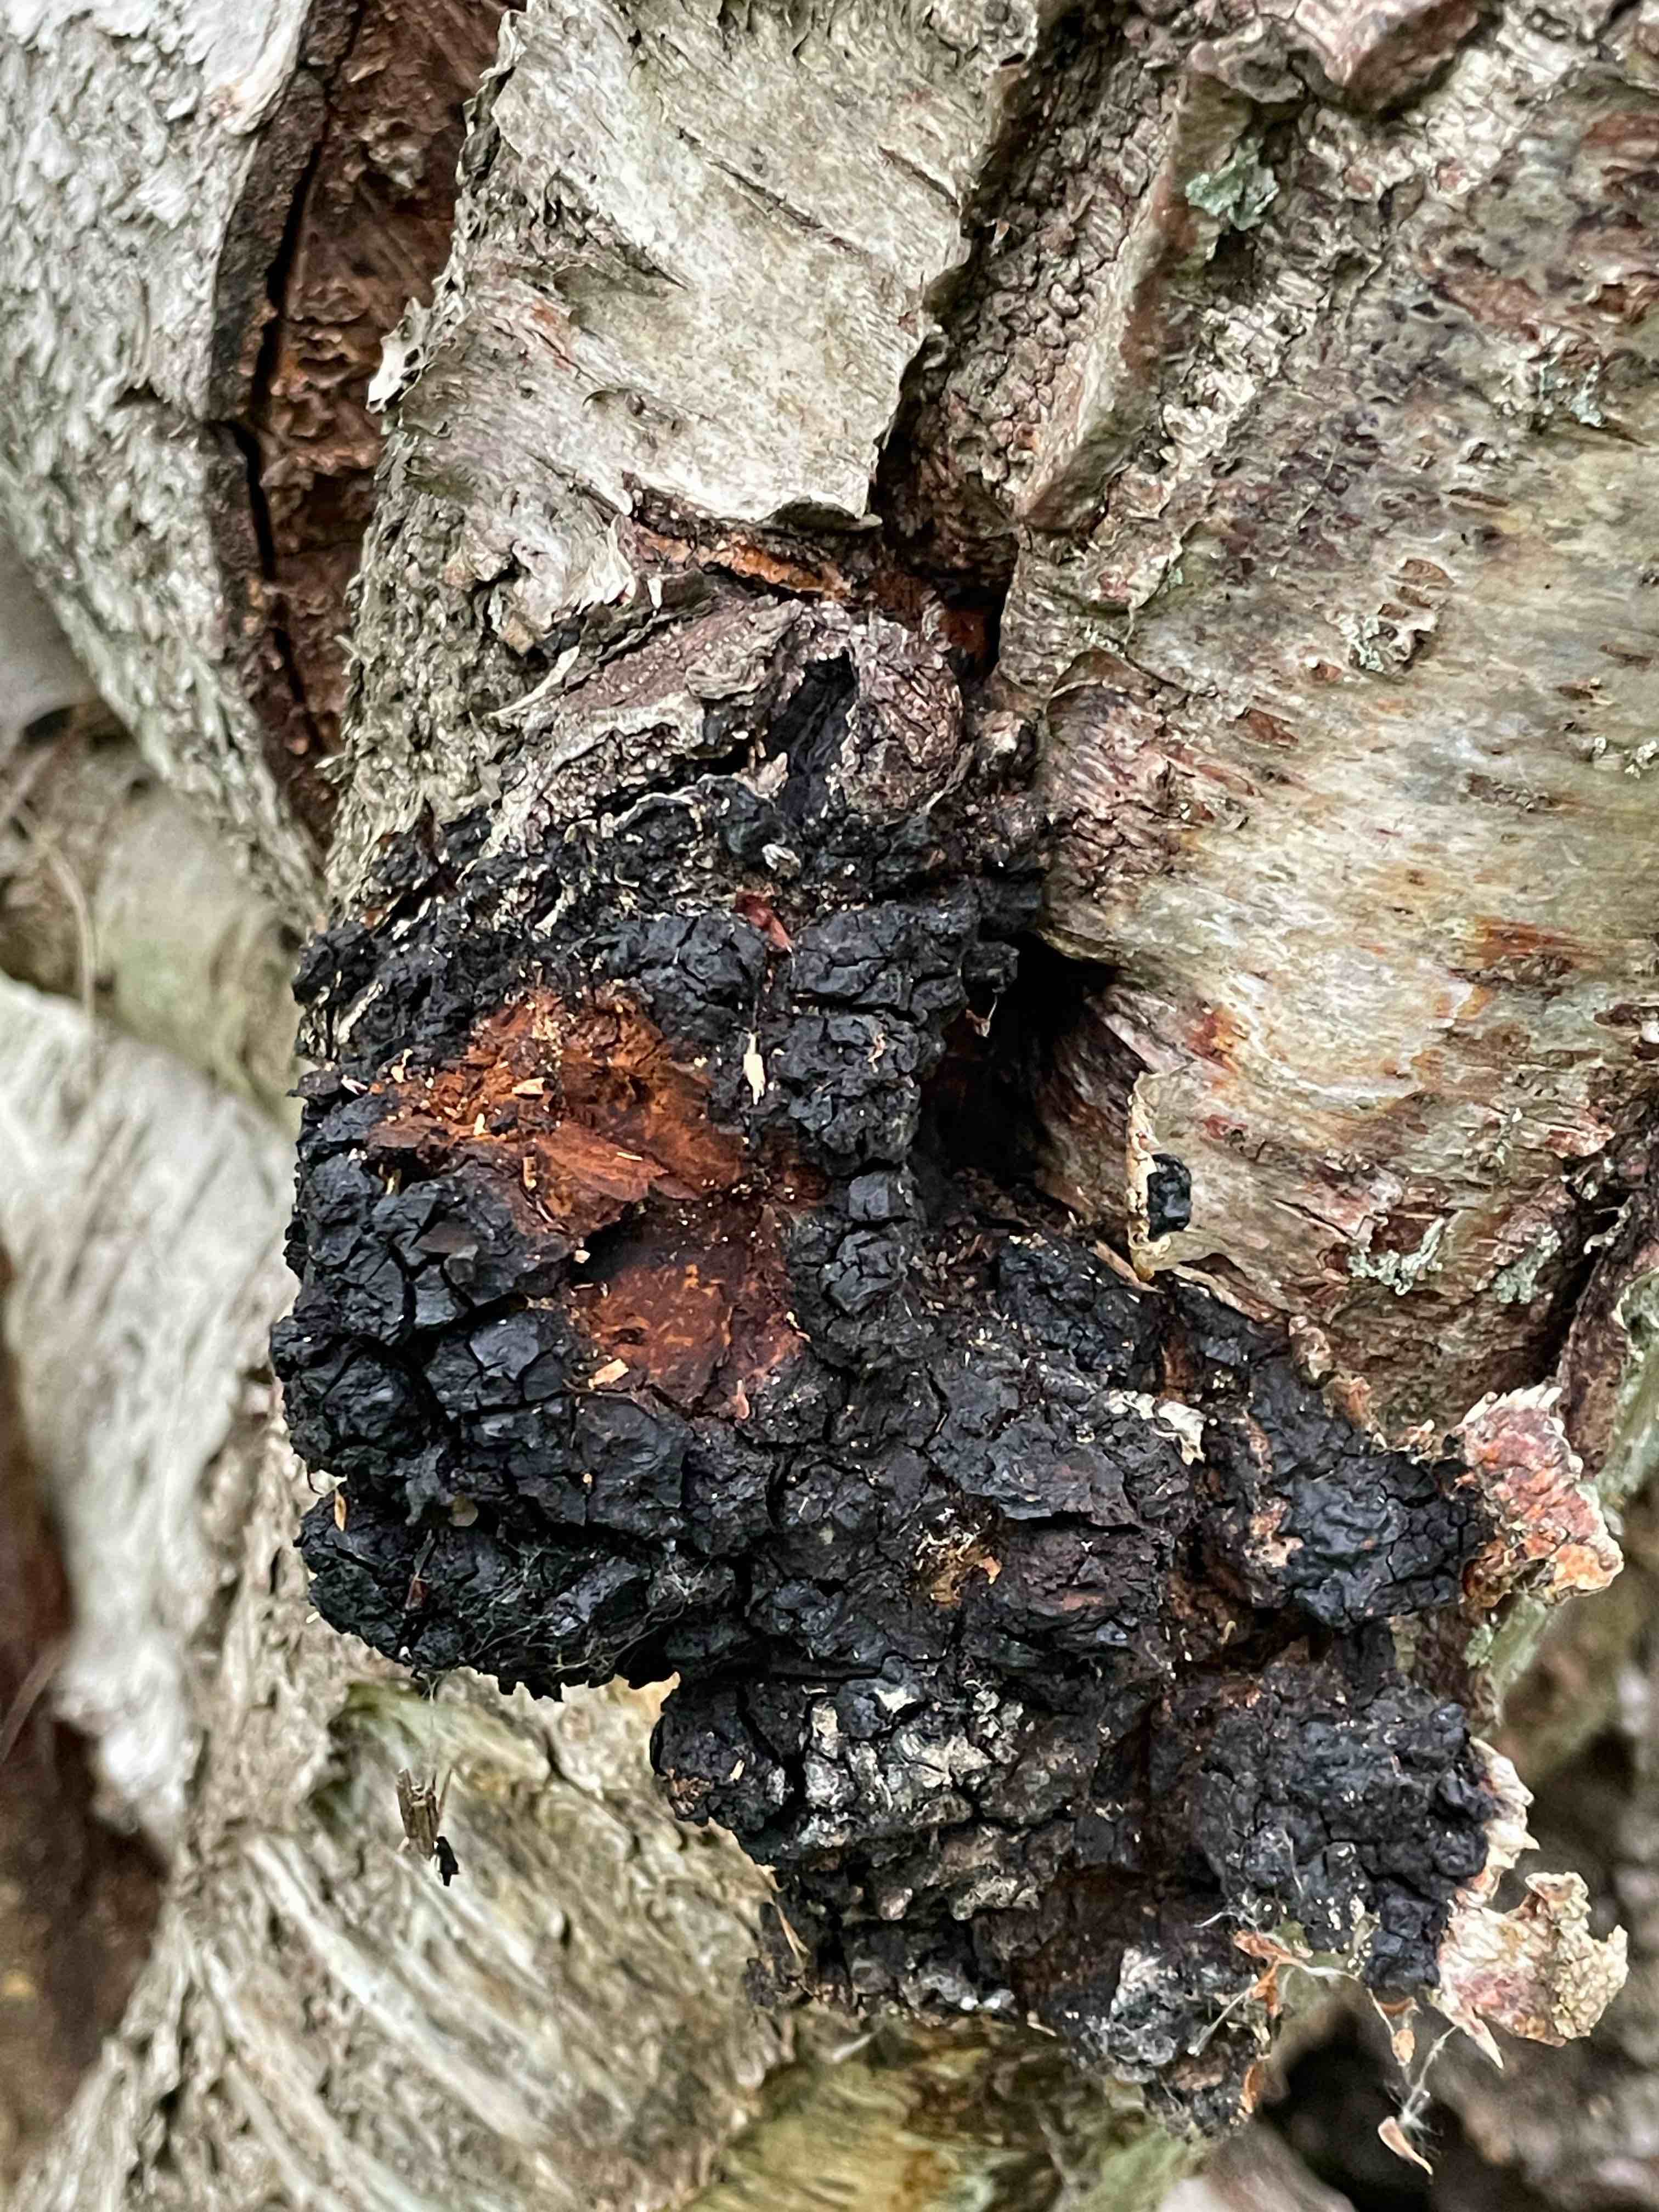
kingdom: Fungi
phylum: Basidiomycota
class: Agaricomycetes
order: Hymenochaetales
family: Hymenochaetaceae
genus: Inonotus
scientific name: Inonotus obliquus
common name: birke-spejlporesvamp
